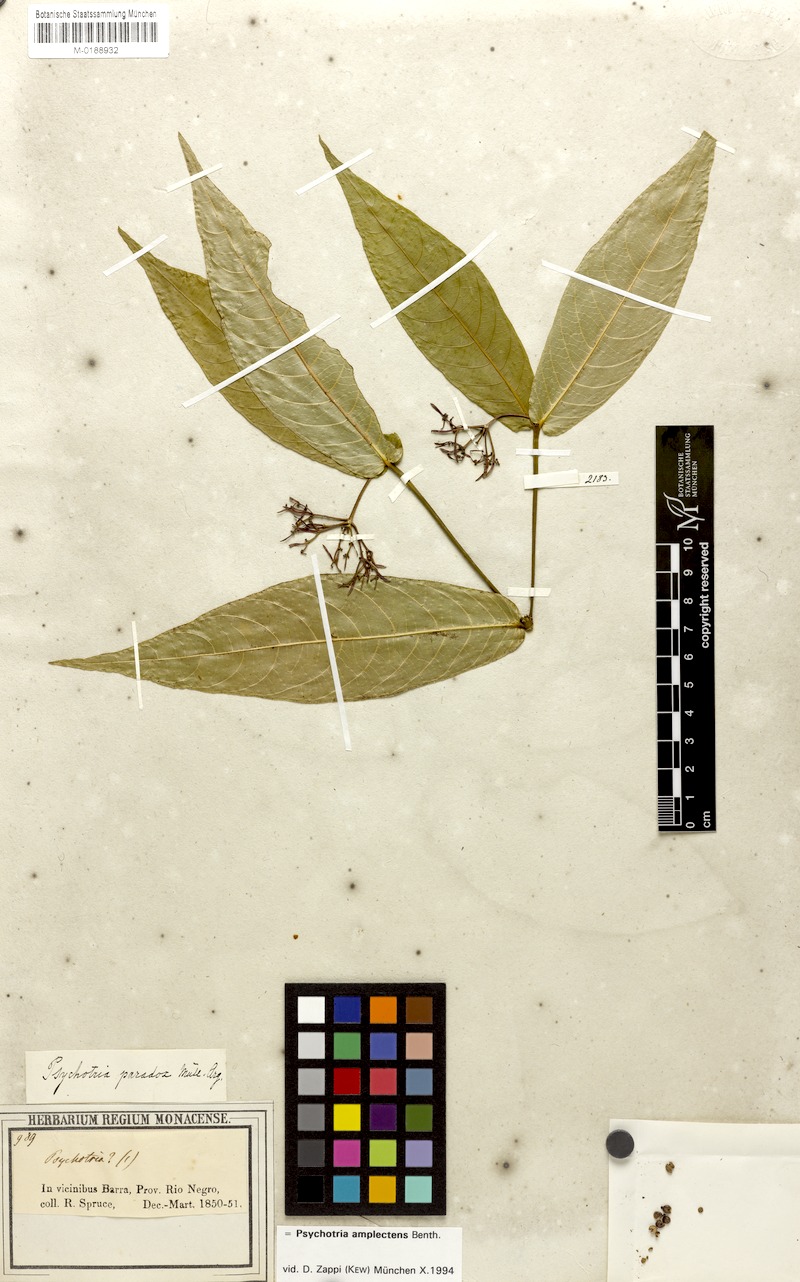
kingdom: Plantae
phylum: Tracheophyta
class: Magnoliopsida
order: Gentianales
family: Rubiaceae
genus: Palicourea
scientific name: Palicourea amplectens
